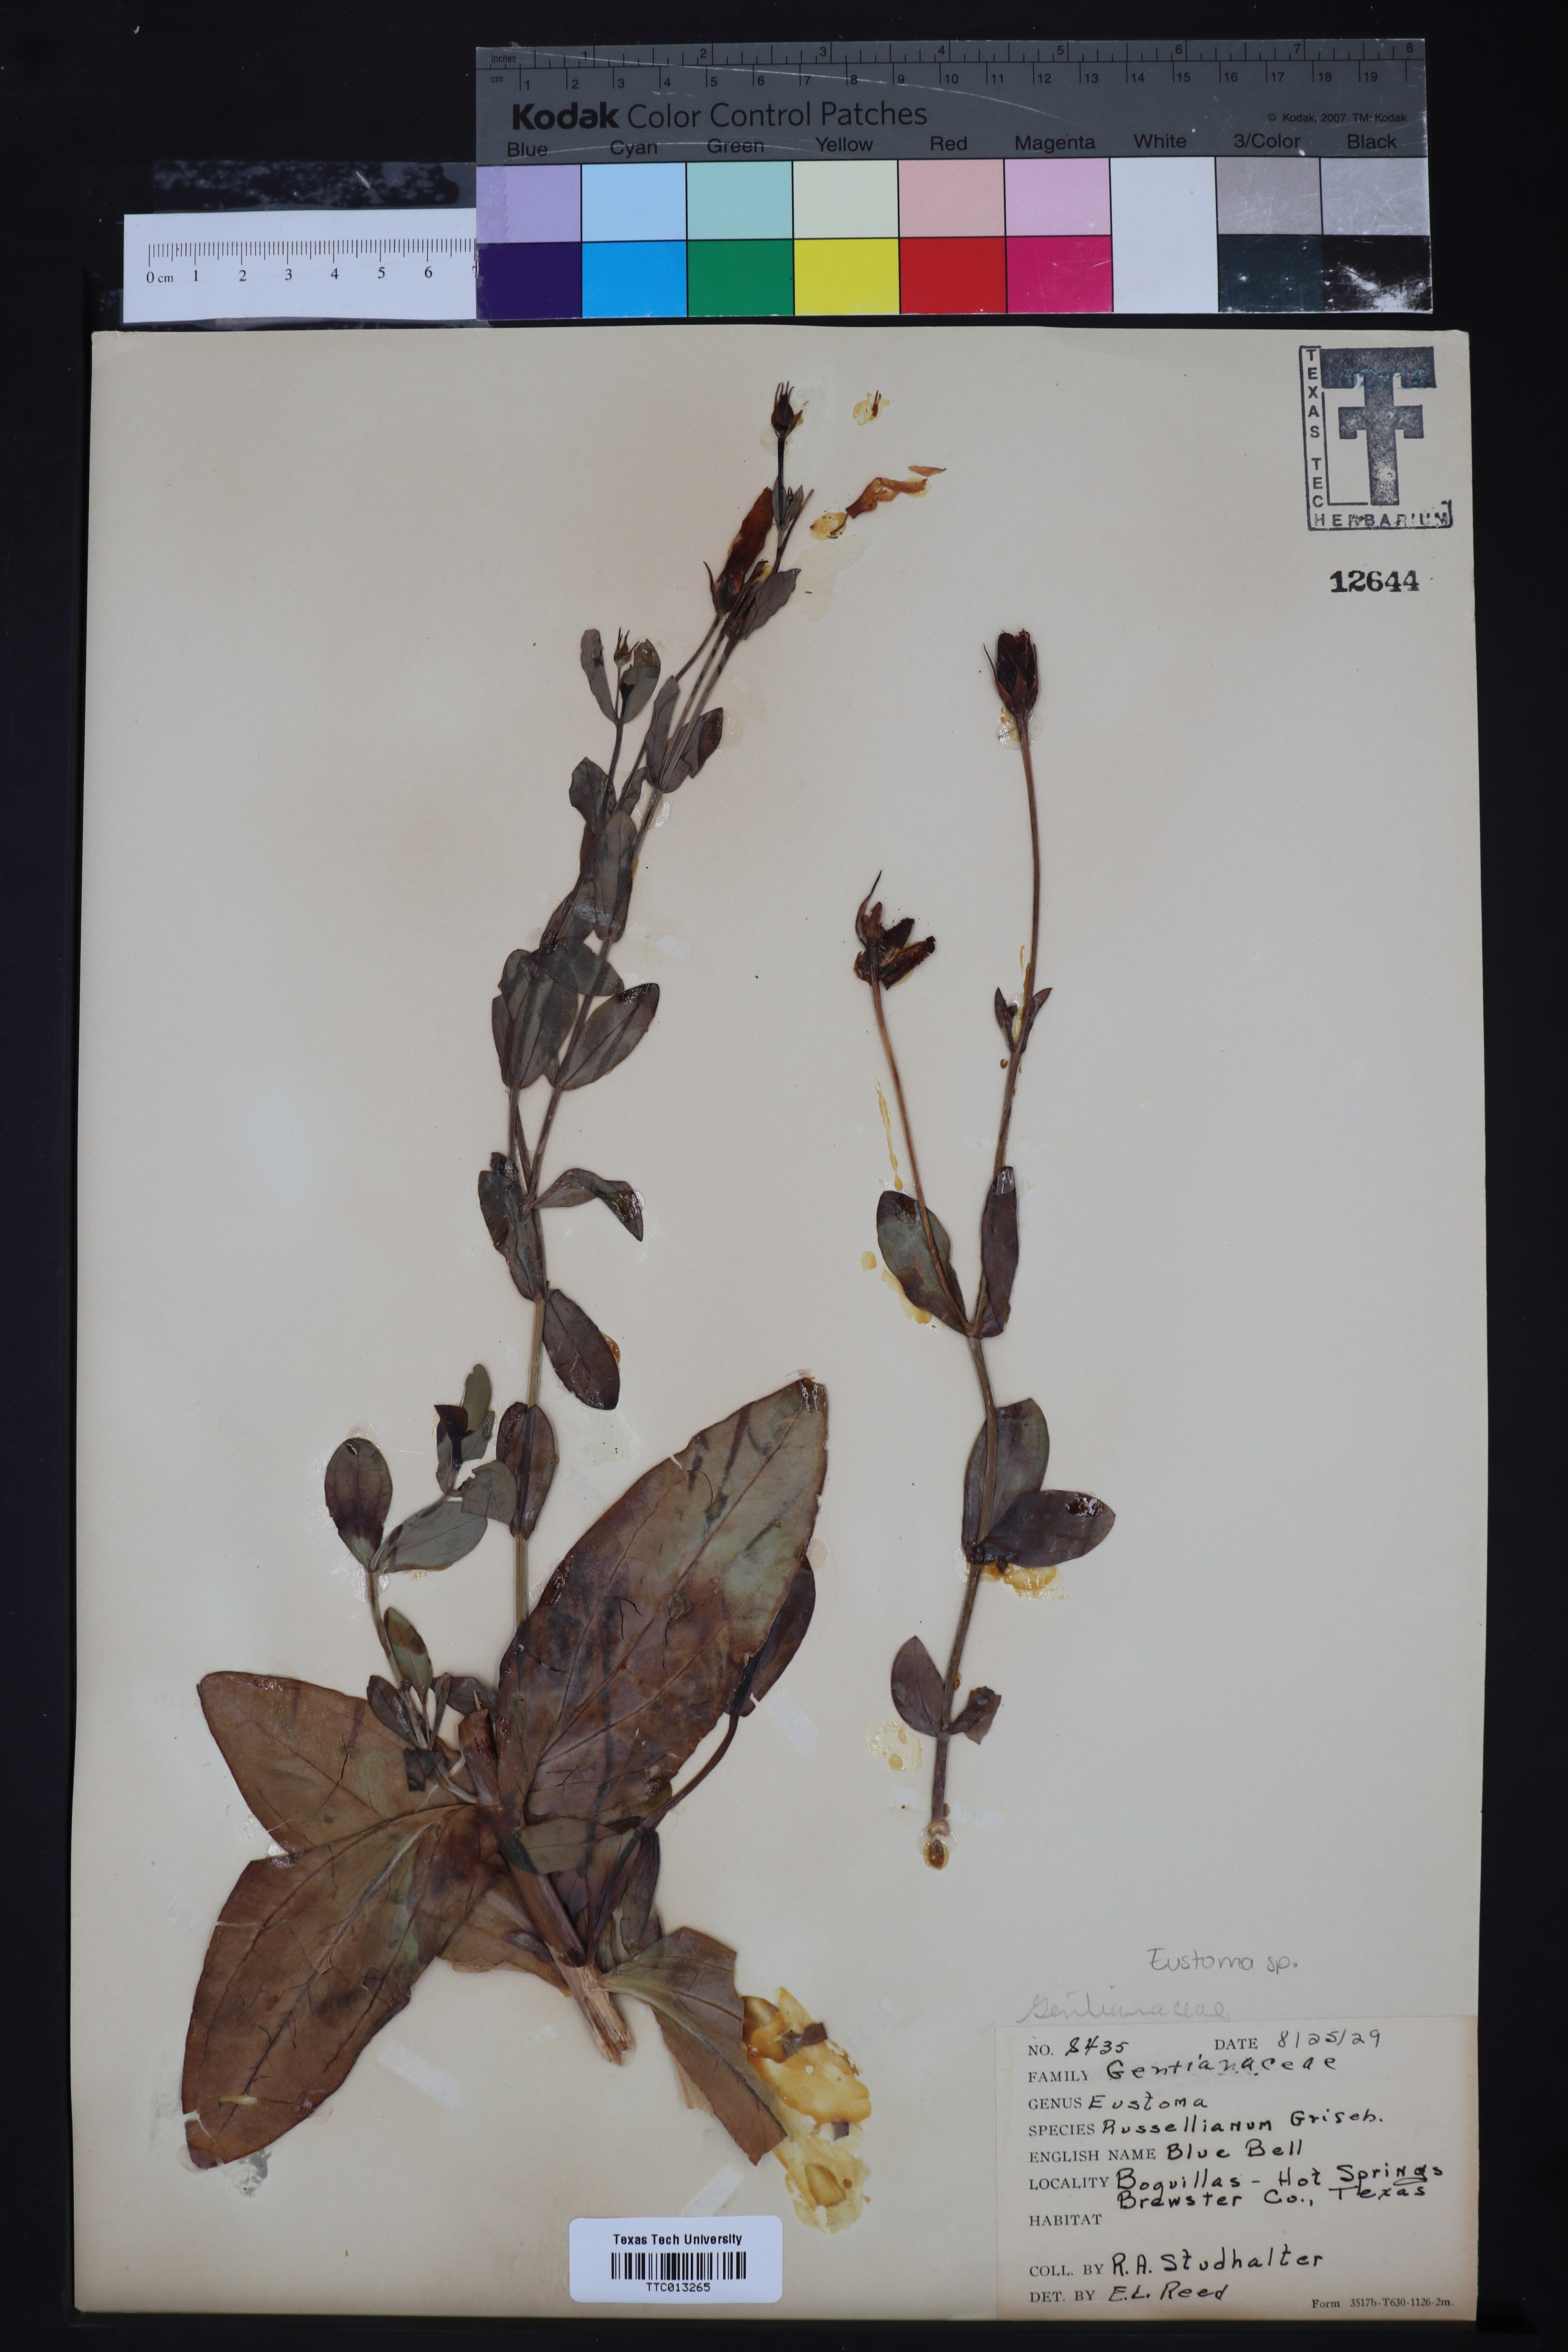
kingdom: Plantae
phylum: Tracheophyta
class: Magnoliopsida
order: Gentianales
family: Gentianaceae
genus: Eustoma
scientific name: Eustoma russellianum
